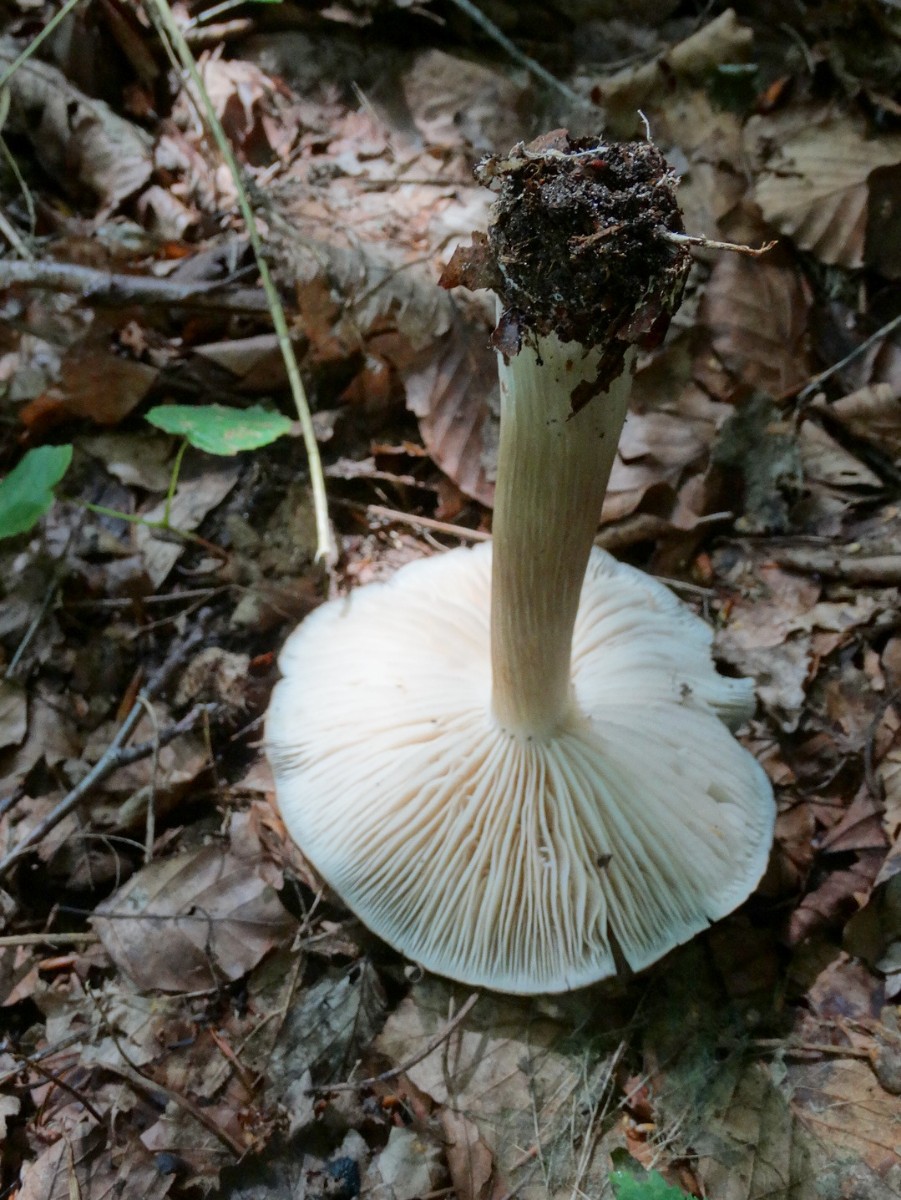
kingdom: Fungi
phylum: Basidiomycota
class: Agaricomycetes
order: Agaricales
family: Tricholomataceae
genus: Megacollybia
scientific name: Megacollybia platyphylla
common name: bredbladet væbnerhat
